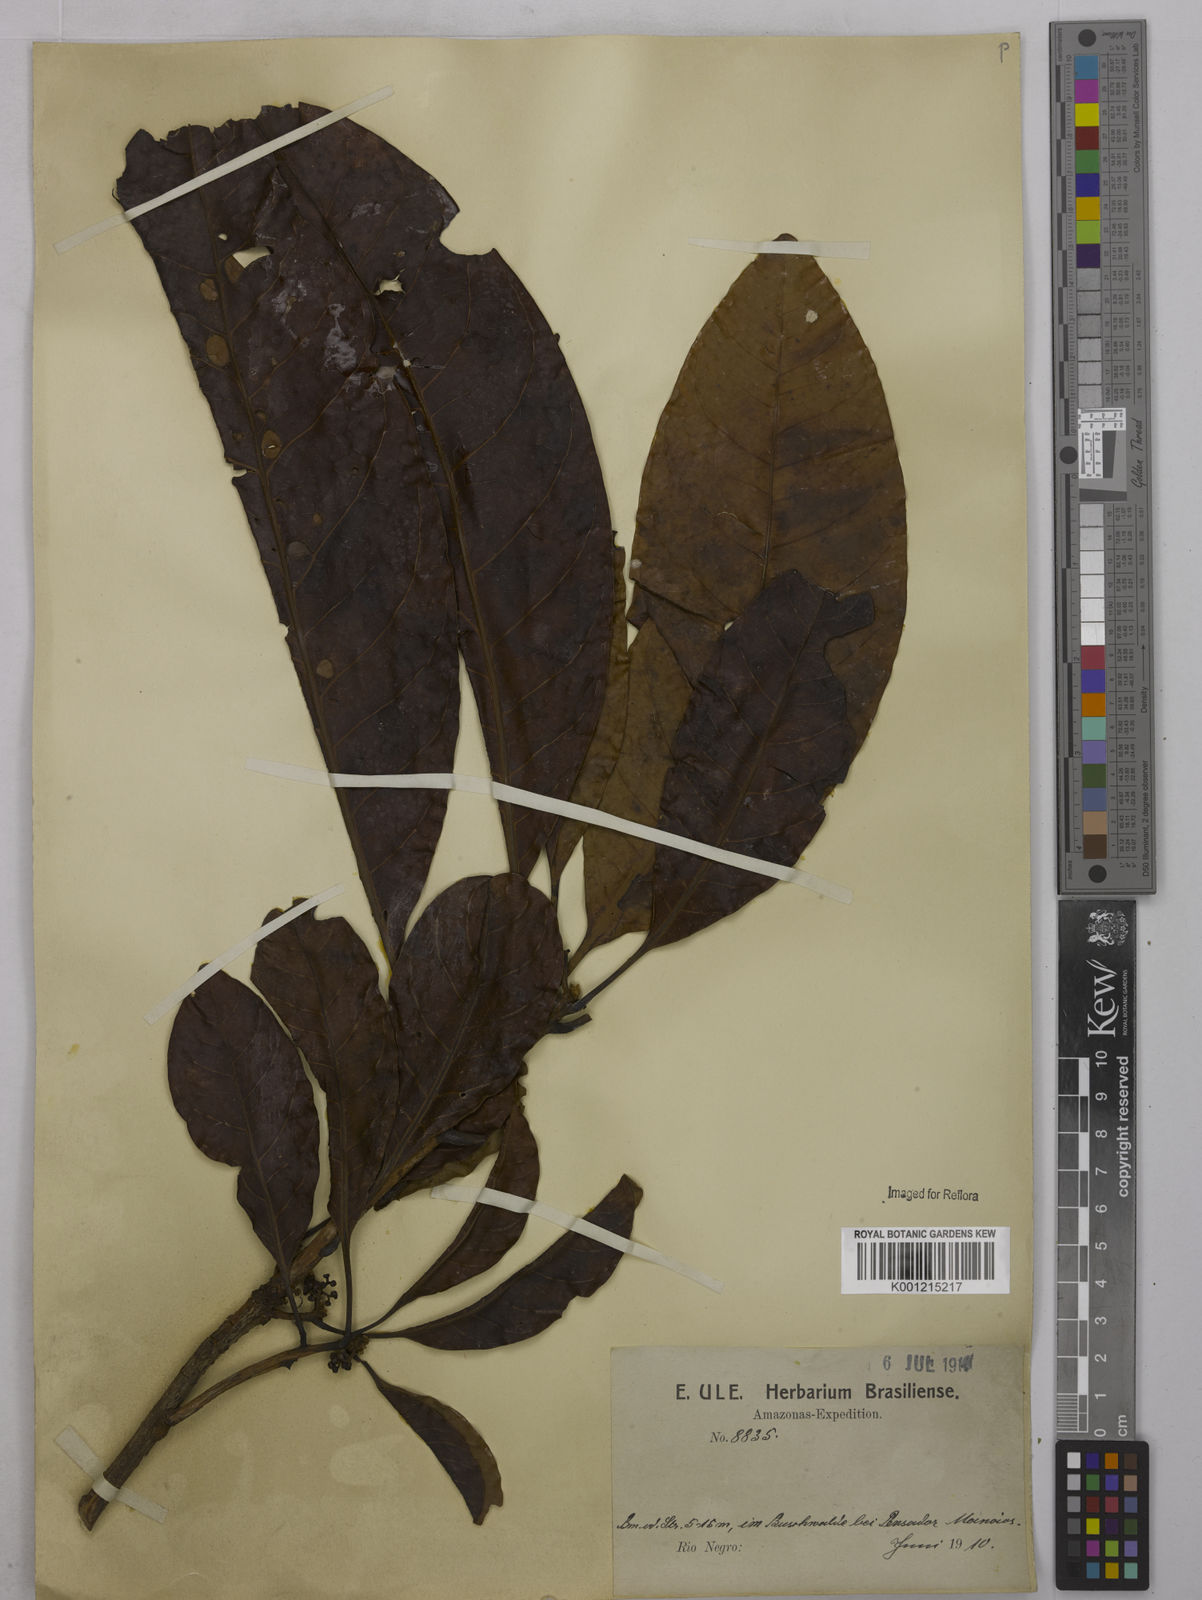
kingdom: Plantae
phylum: Tracheophyta
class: Magnoliopsida
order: Malpighiales
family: Euphorbiaceae
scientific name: Euphorbiaceae
